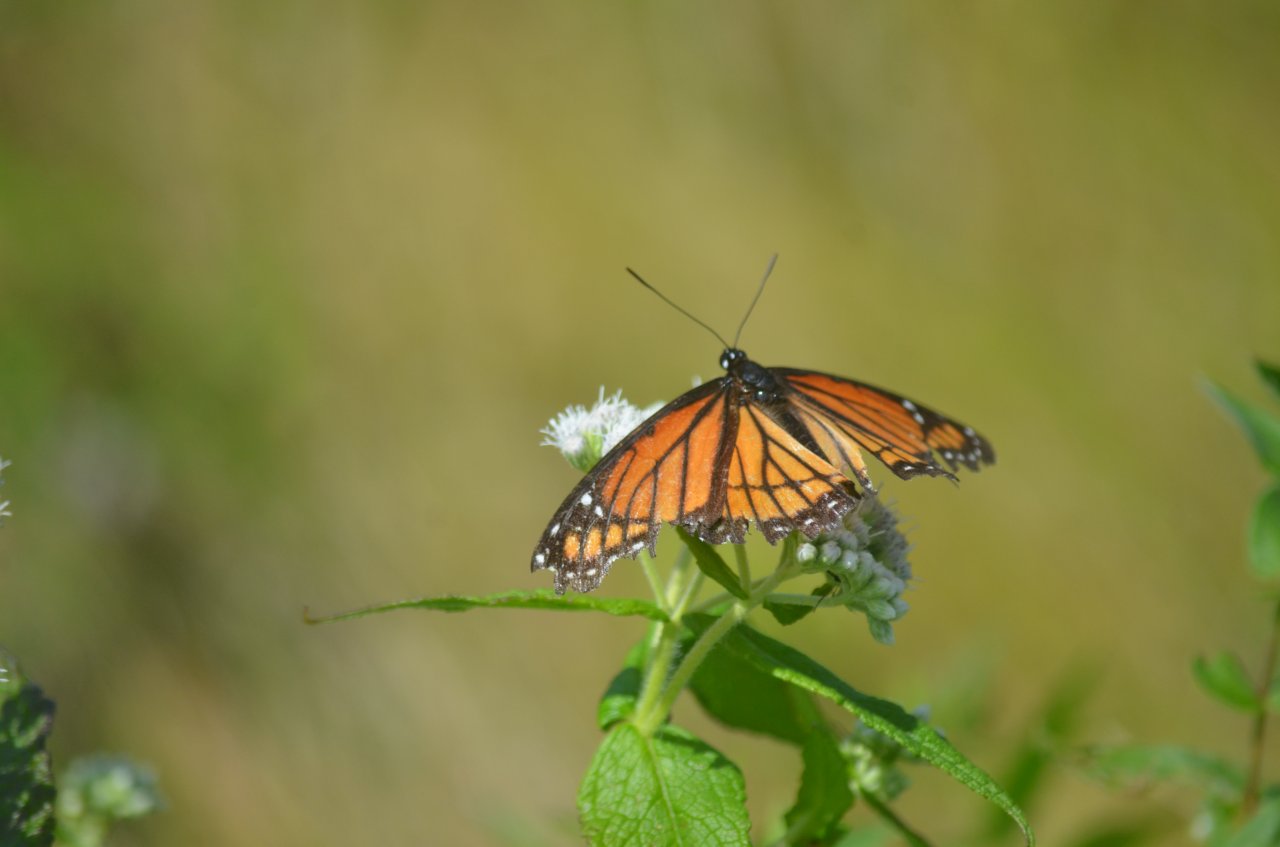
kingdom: Animalia
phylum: Arthropoda
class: Insecta
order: Lepidoptera
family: Nymphalidae
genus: Limenitis
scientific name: Limenitis archippus
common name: Viceroy
